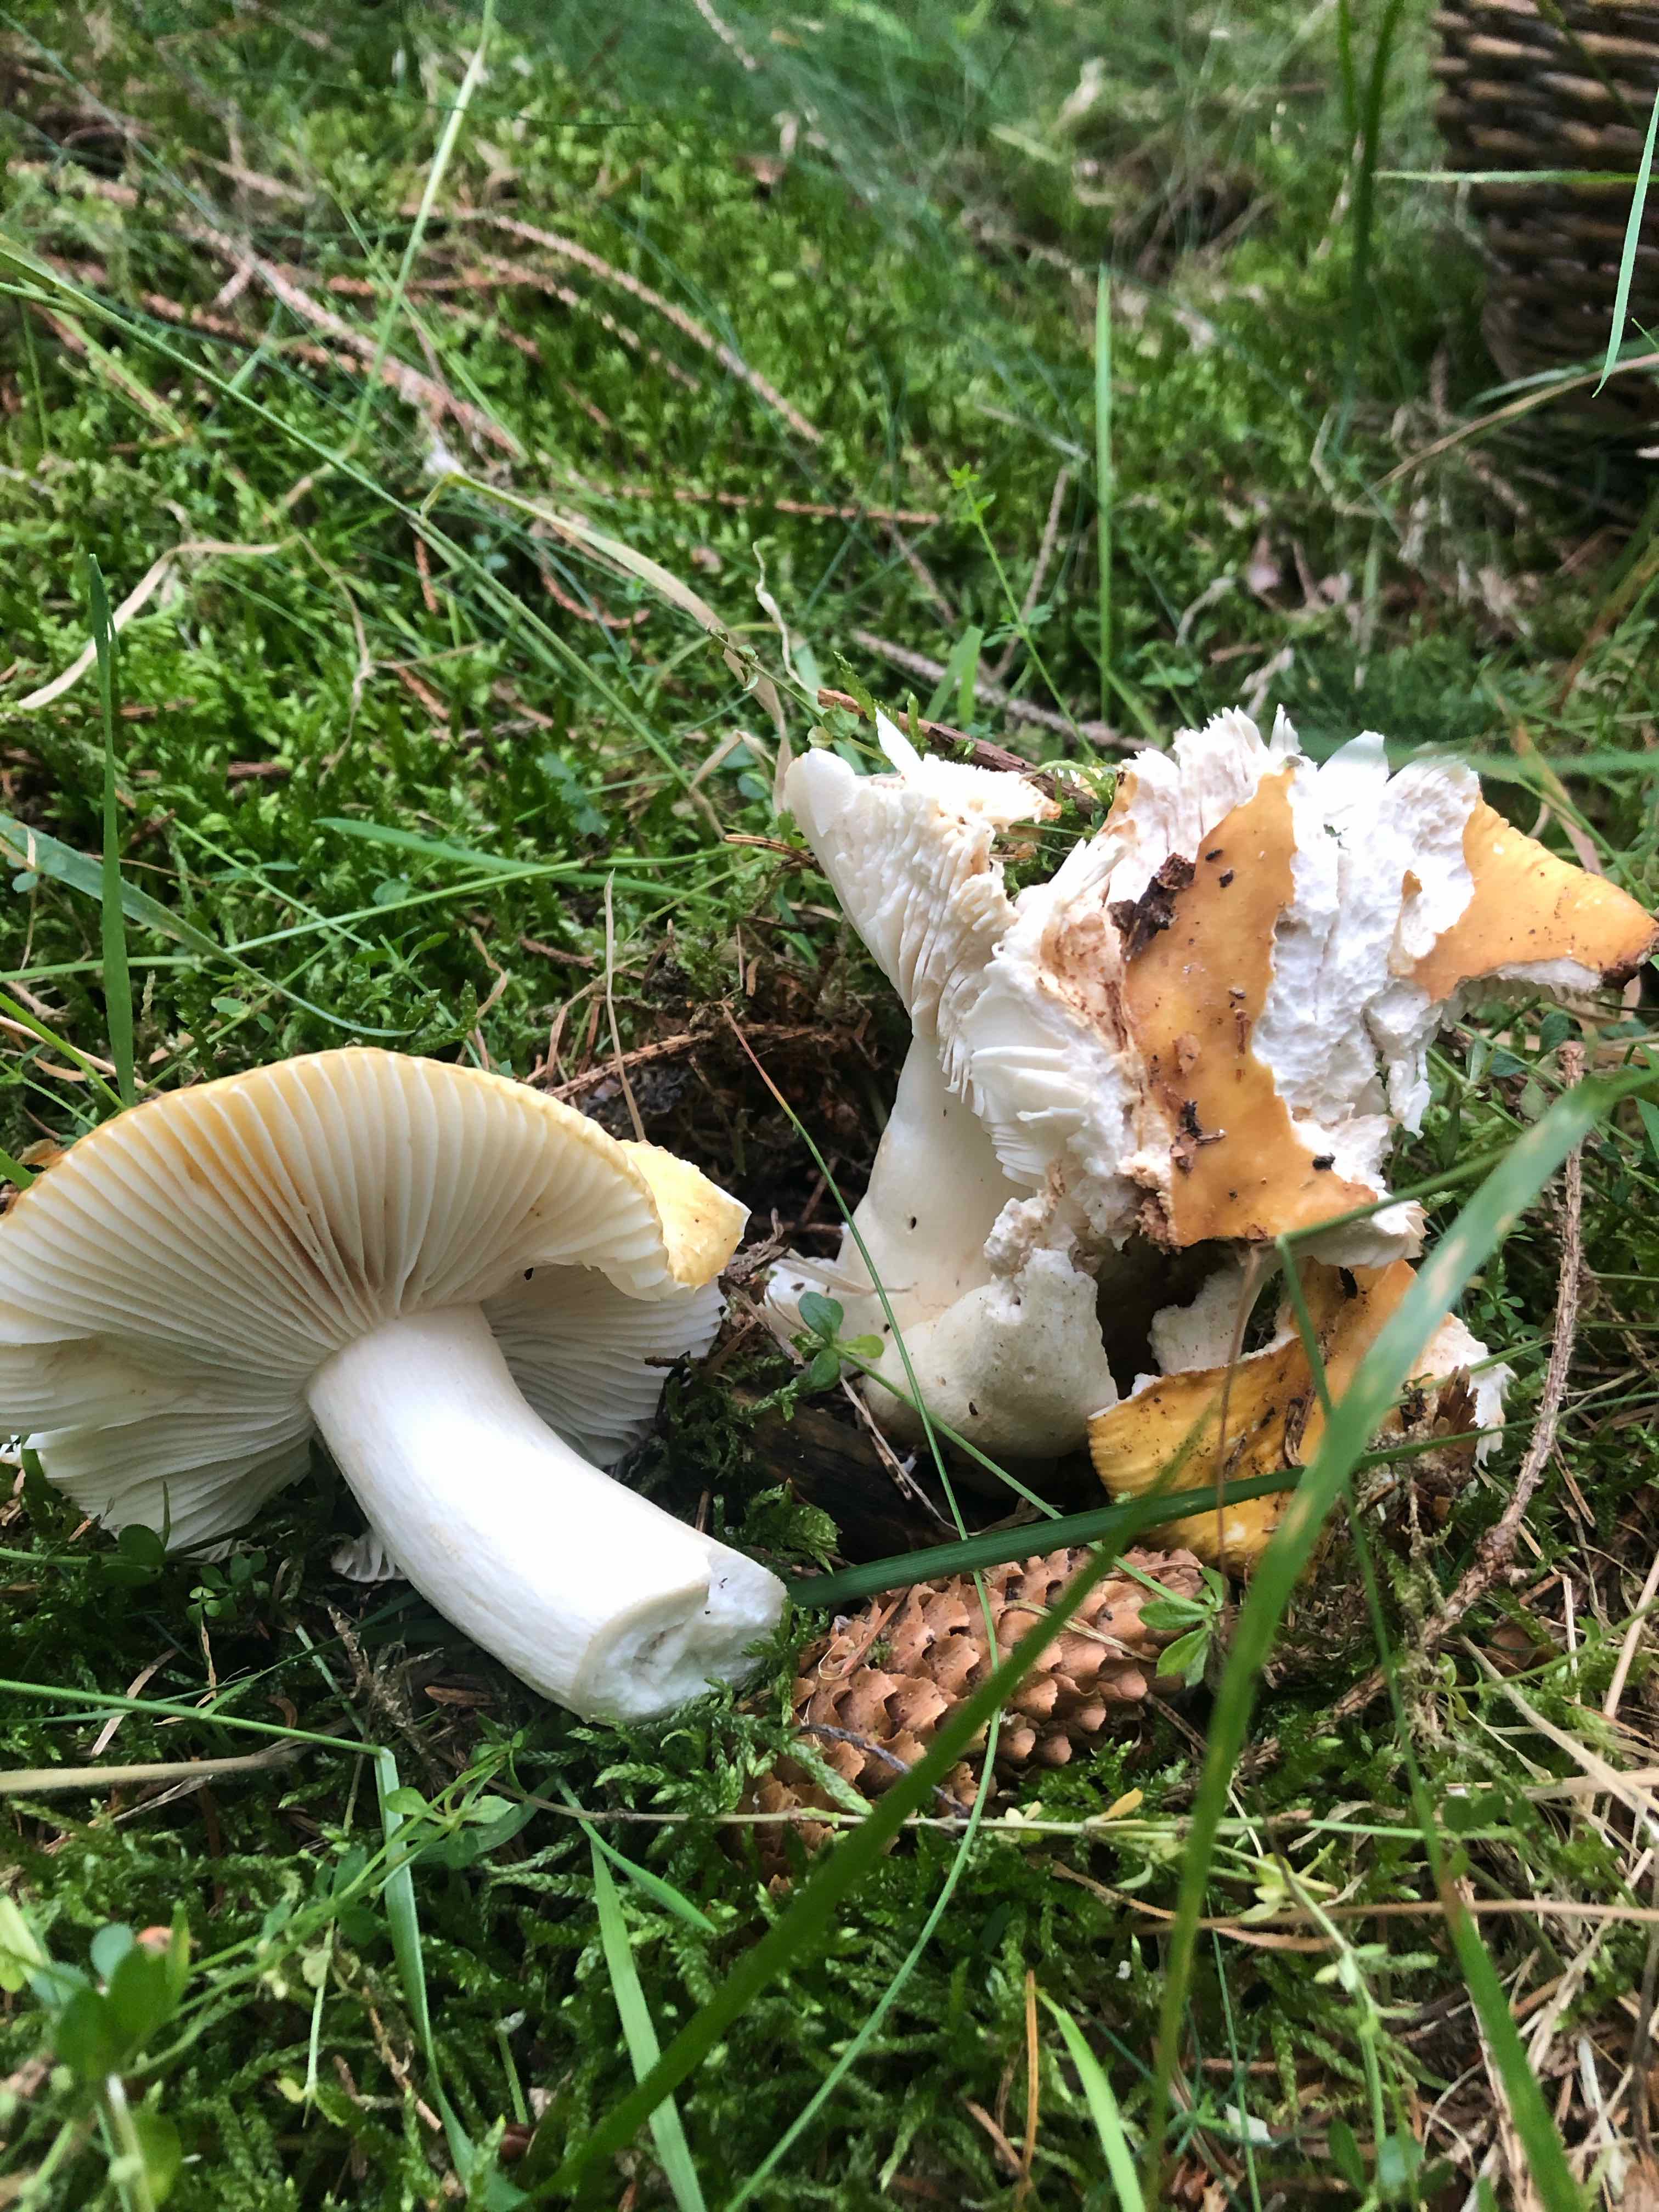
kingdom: Fungi
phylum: Basidiomycota
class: Agaricomycetes
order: Russulales
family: Russulaceae
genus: Russula
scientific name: Russula ochroleuca
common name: okkergul skørhat
